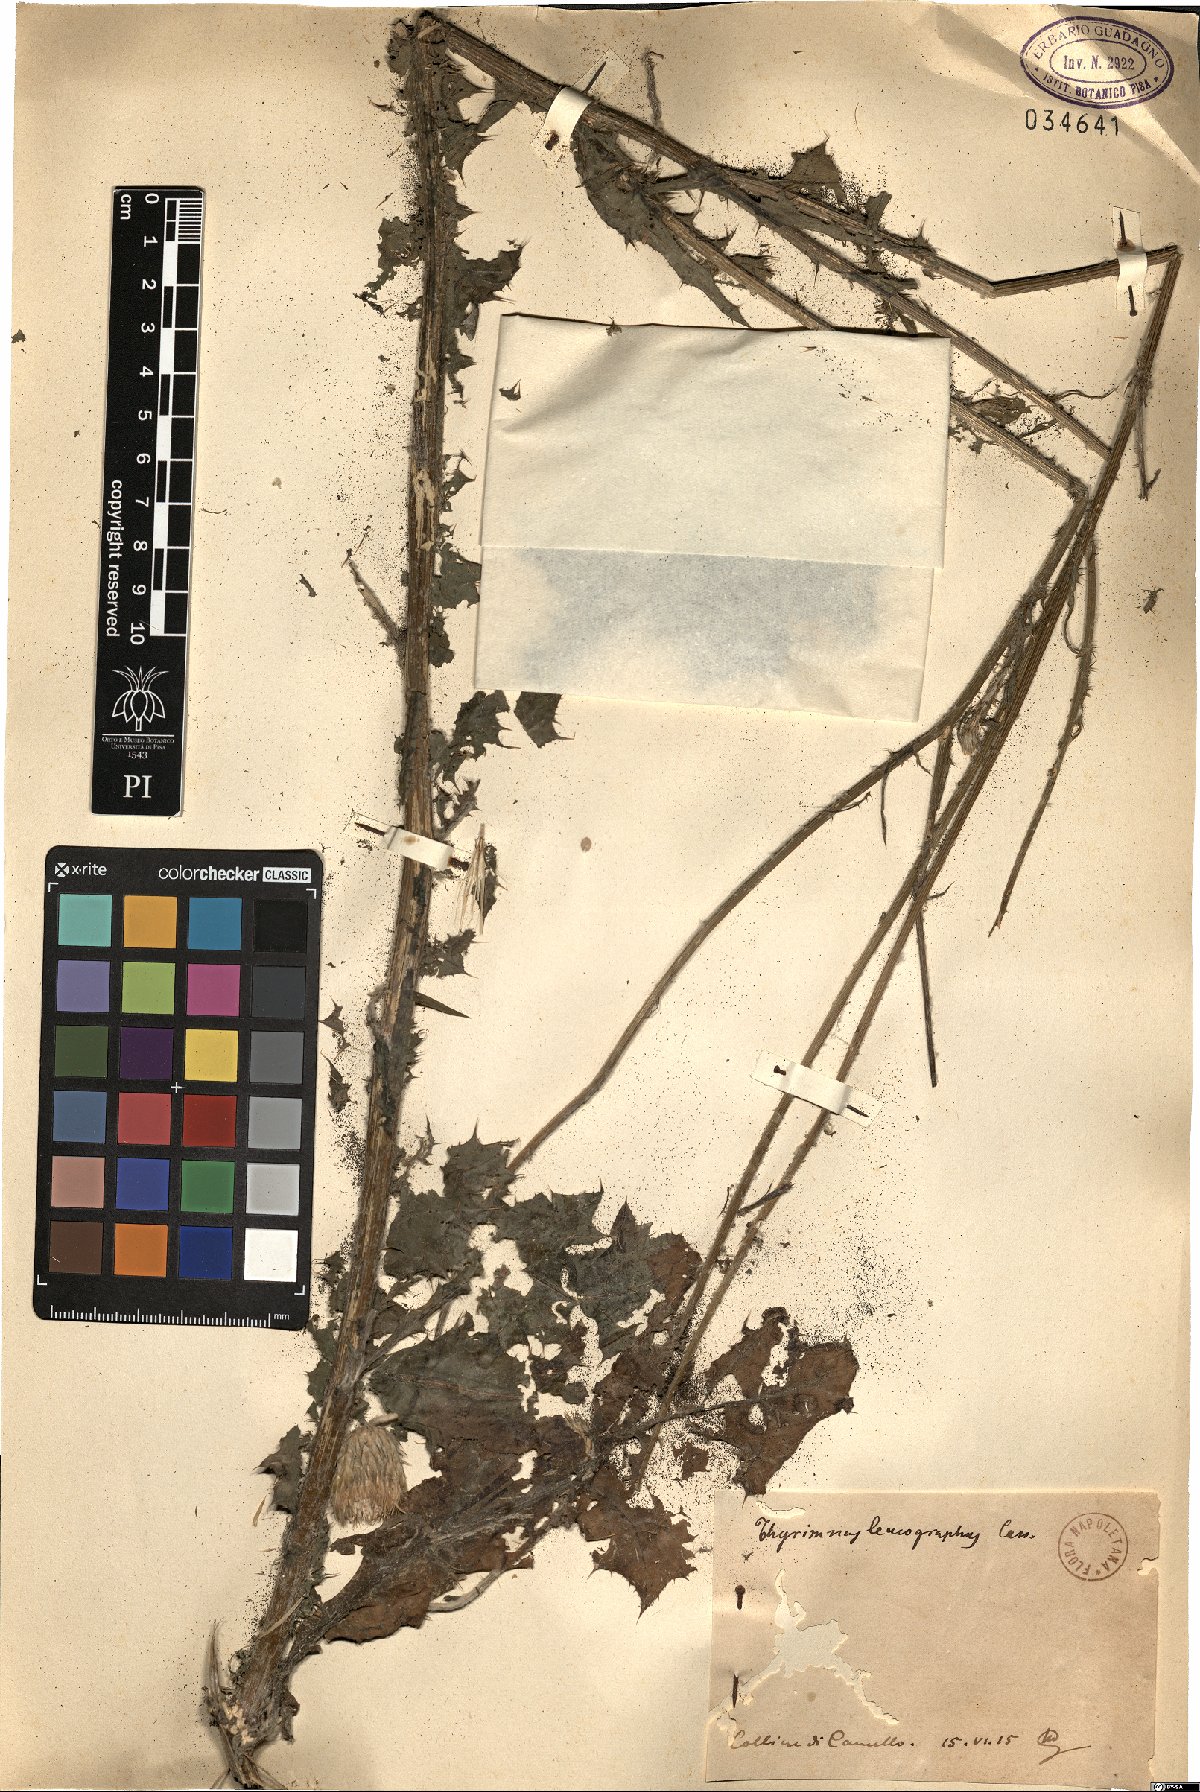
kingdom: Plantae
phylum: Tracheophyta
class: Magnoliopsida
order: Asterales
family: Asteraceae
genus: Tyrimnus
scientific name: Tyrimnus leucographus
